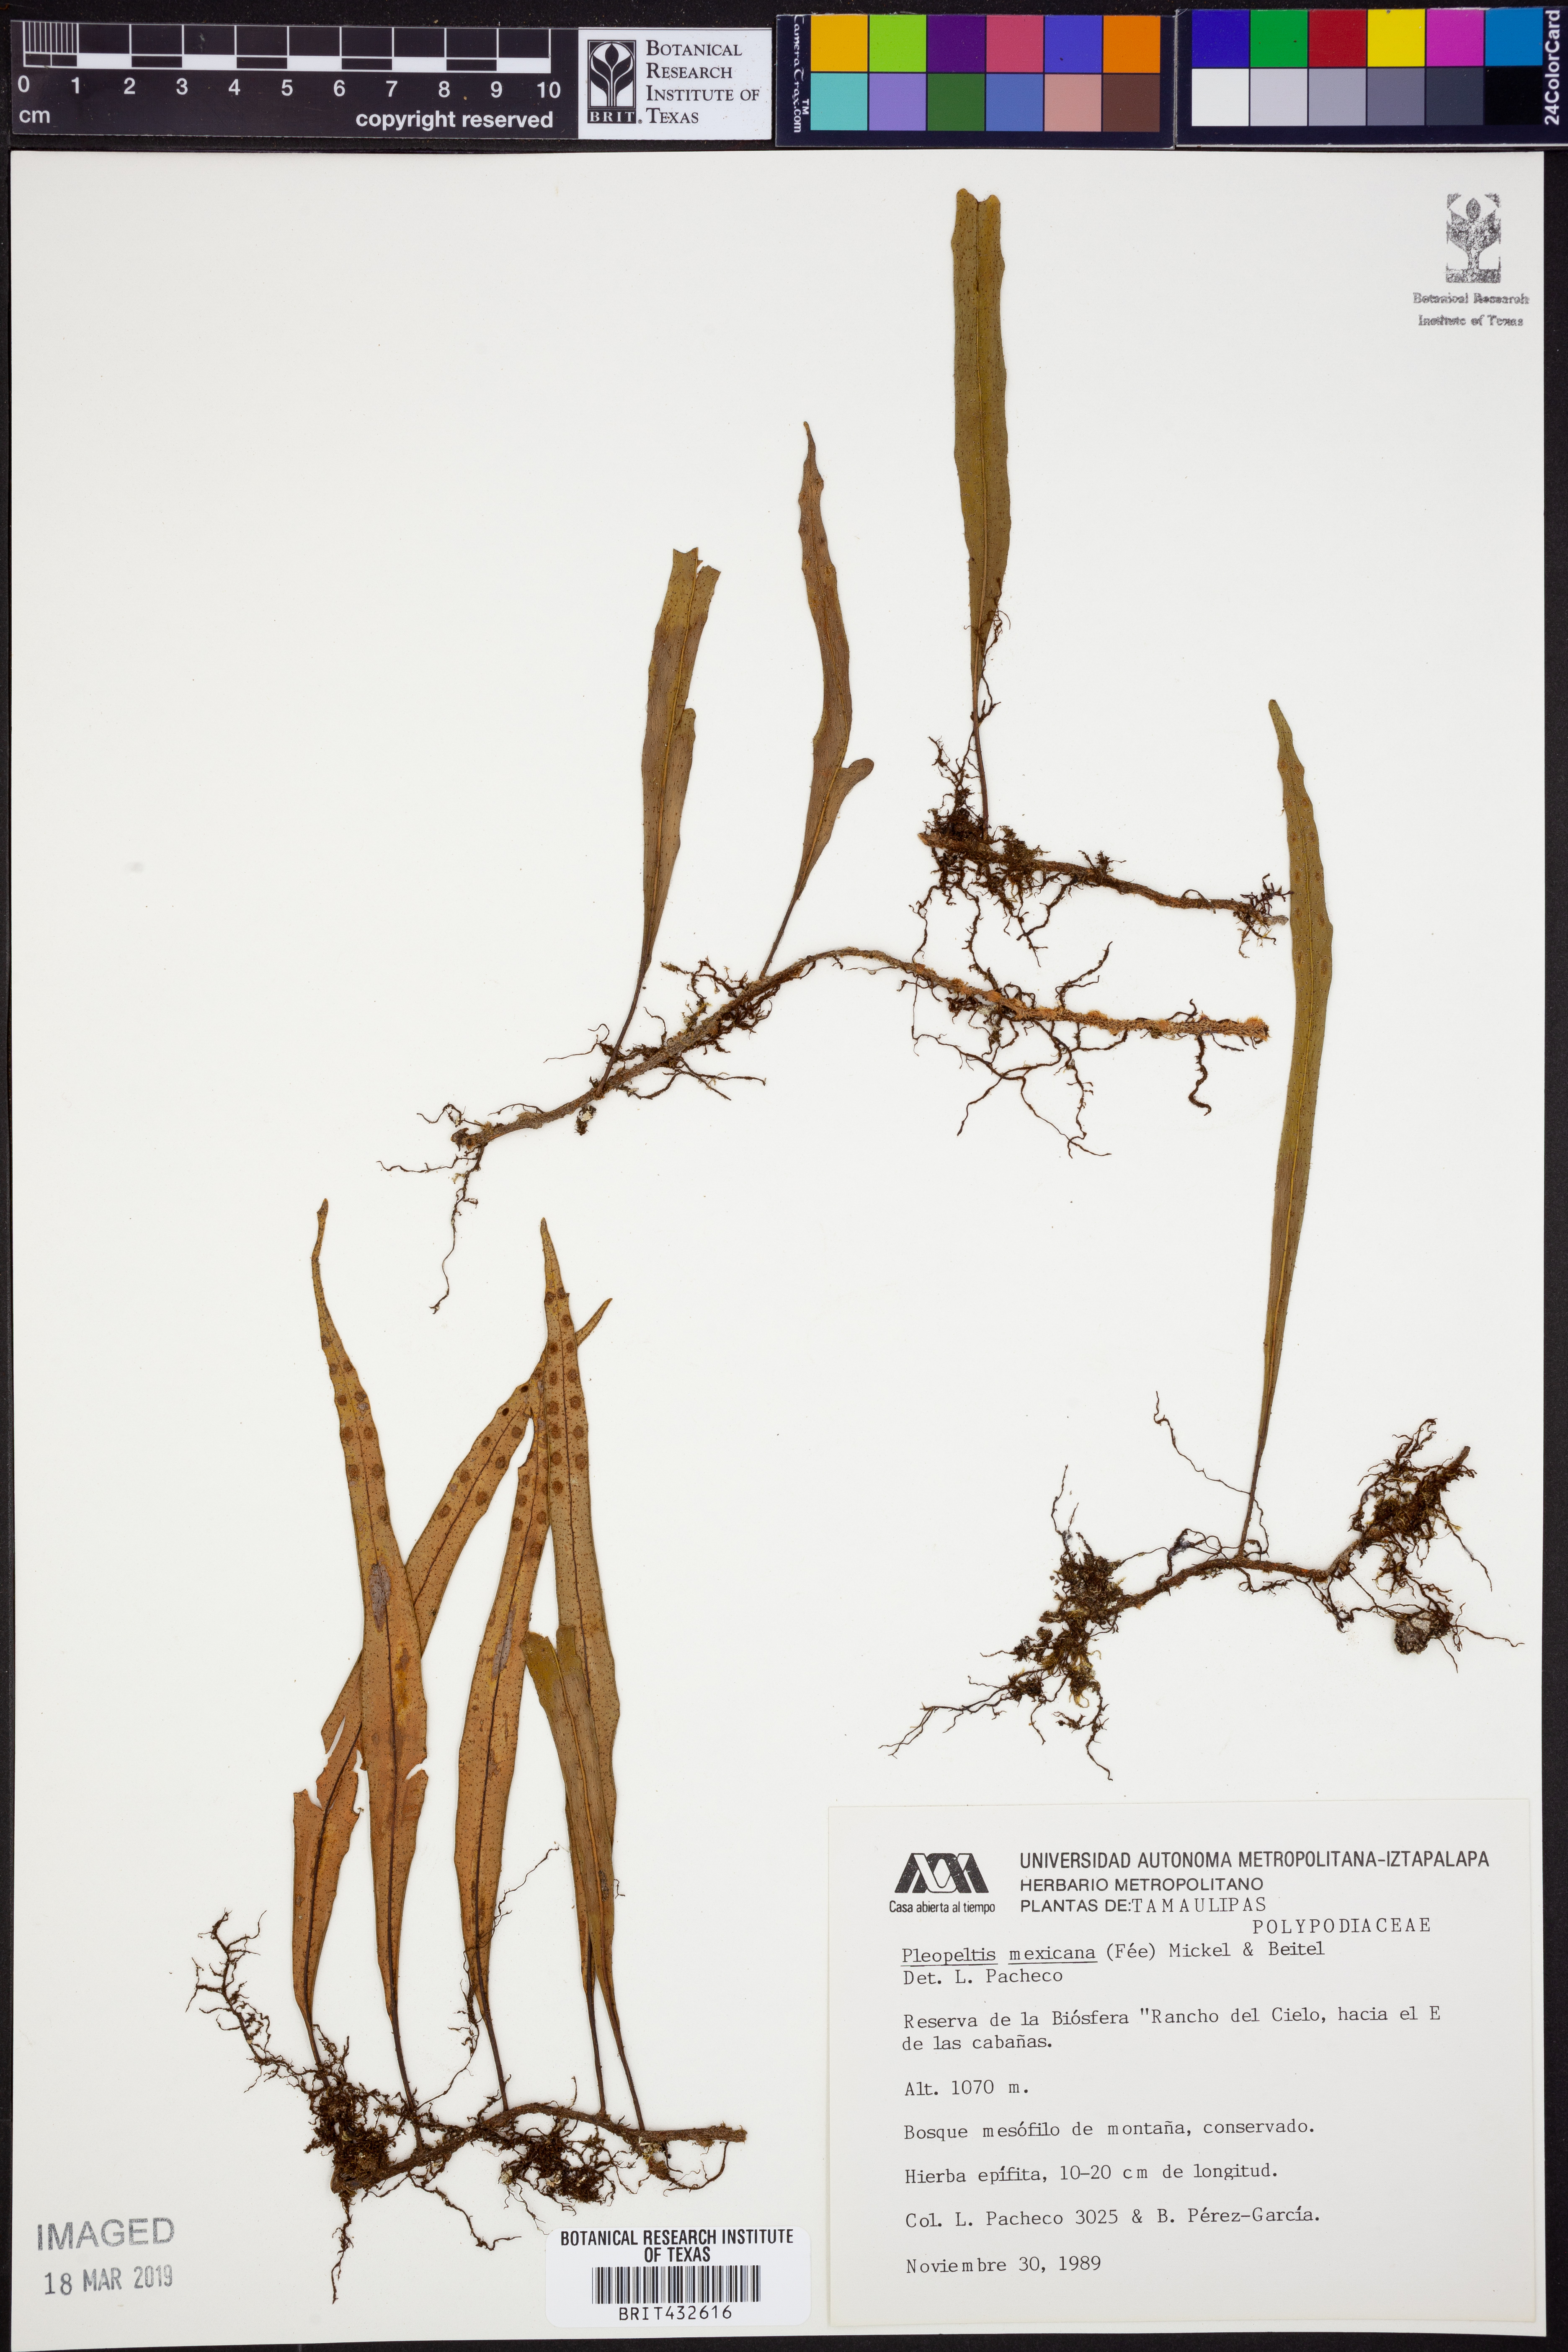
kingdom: Plantae
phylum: Tracheophyta
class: Polypodiopsida
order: Polypodiales
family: Polypodiaceae
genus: Pleopeltis
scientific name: Pleopeltis mexicana
